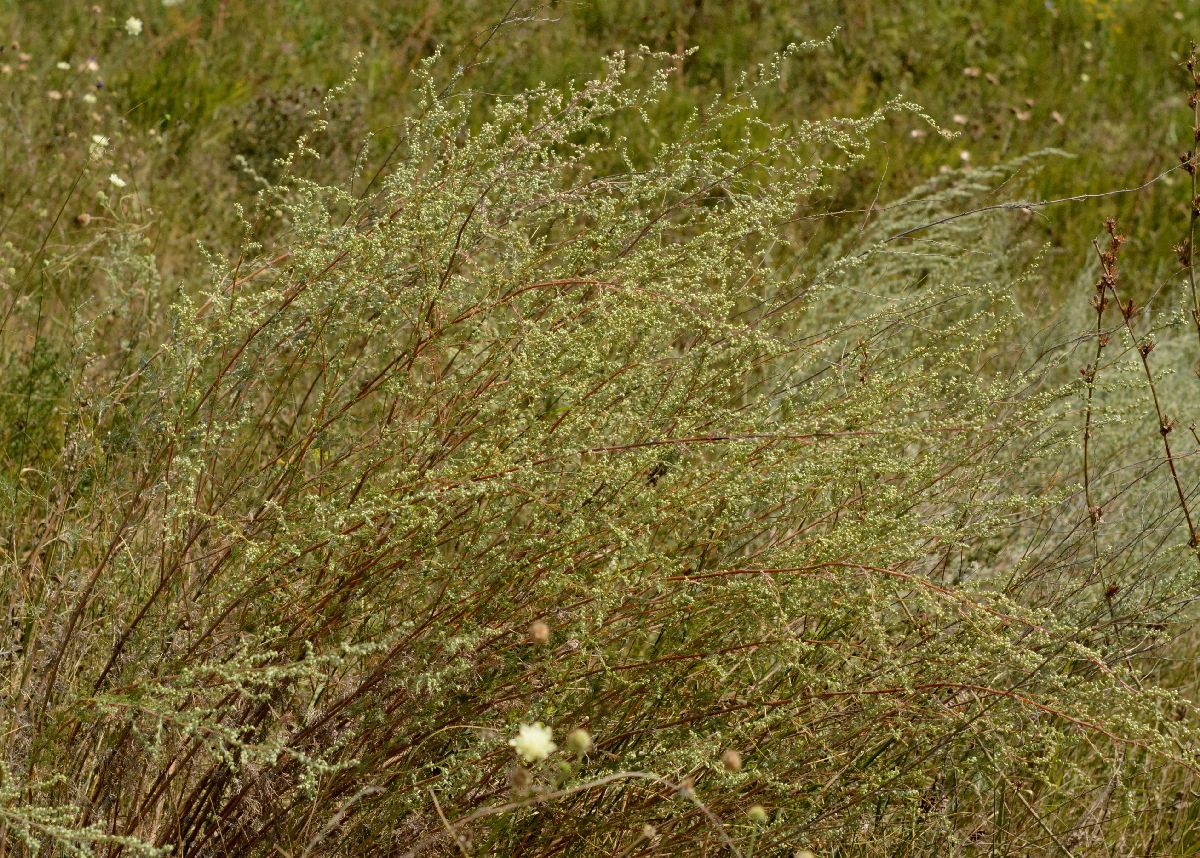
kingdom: Plantae
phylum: Tracheophyta
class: Magnoliopsida
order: Asterales
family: Asteraceae
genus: Artemisia
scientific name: Artemisia campestris
